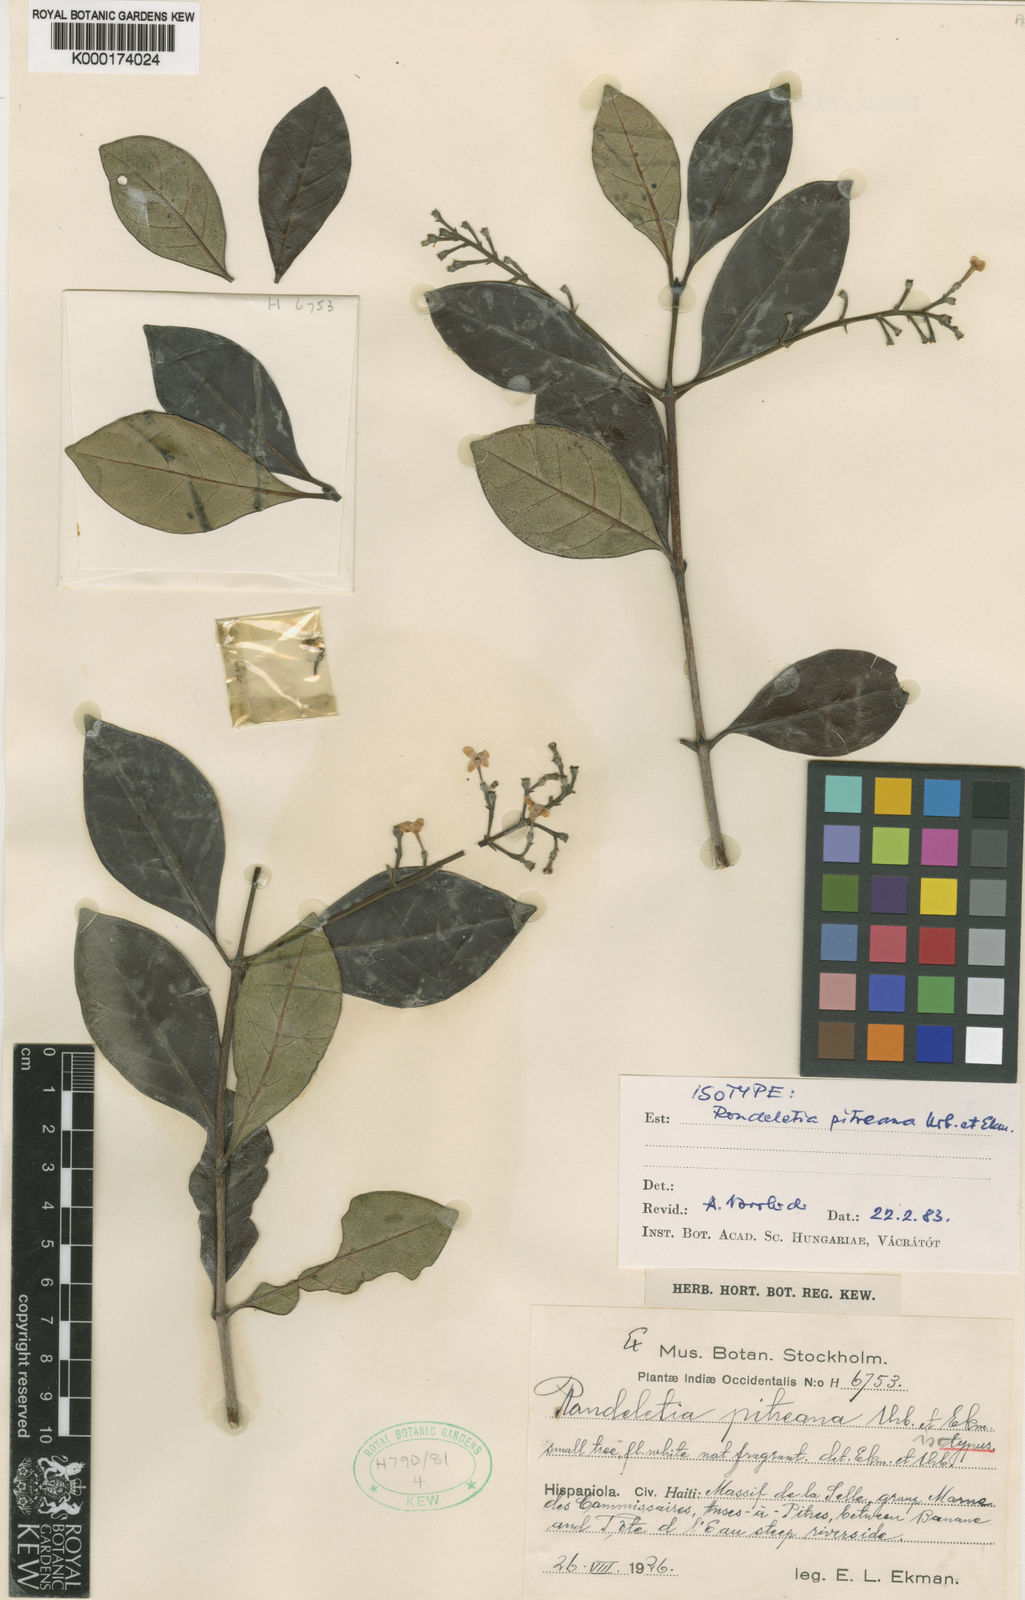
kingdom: Plantae
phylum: Tracheophyta
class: Magnoliopsida
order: Gentianales
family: Rubiaceae
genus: Tainus
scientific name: Tainus pitreanus
